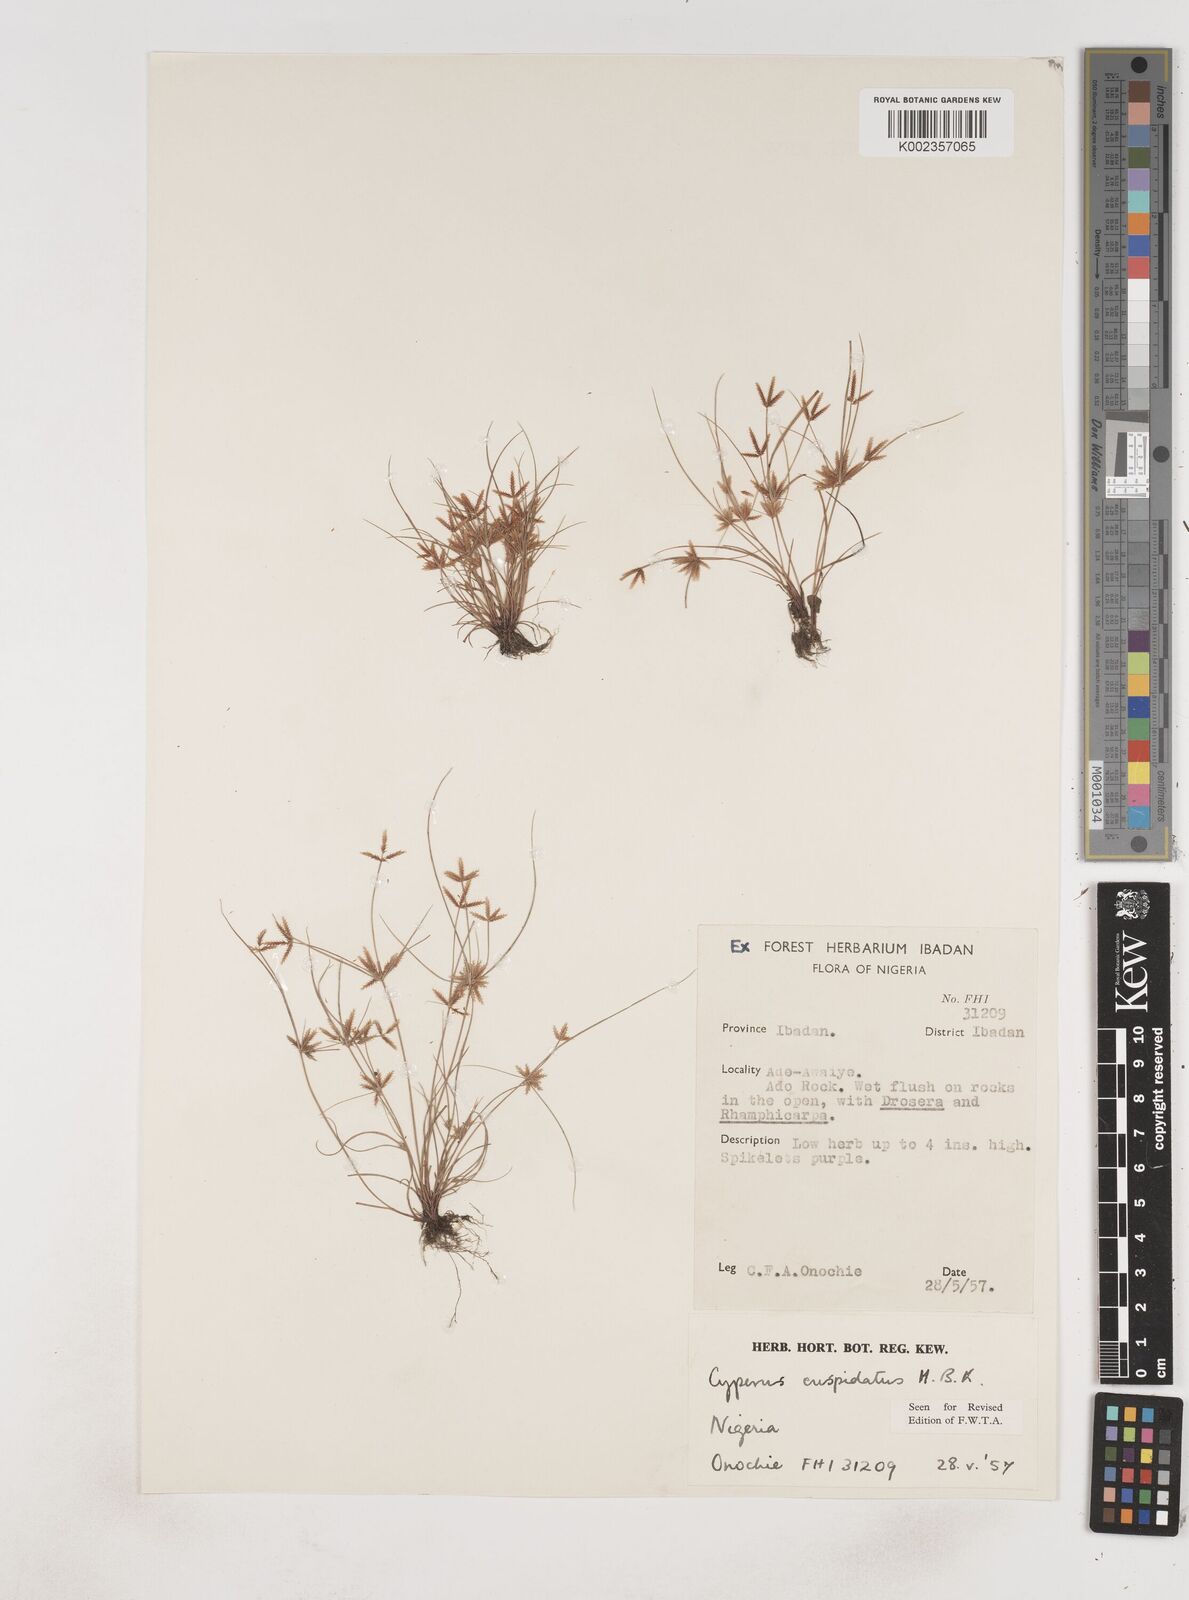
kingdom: Plantae
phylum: Tracheophyta
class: Liliopsida
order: Poales
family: Cyperaceae
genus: Cyperus
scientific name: Cyperus
